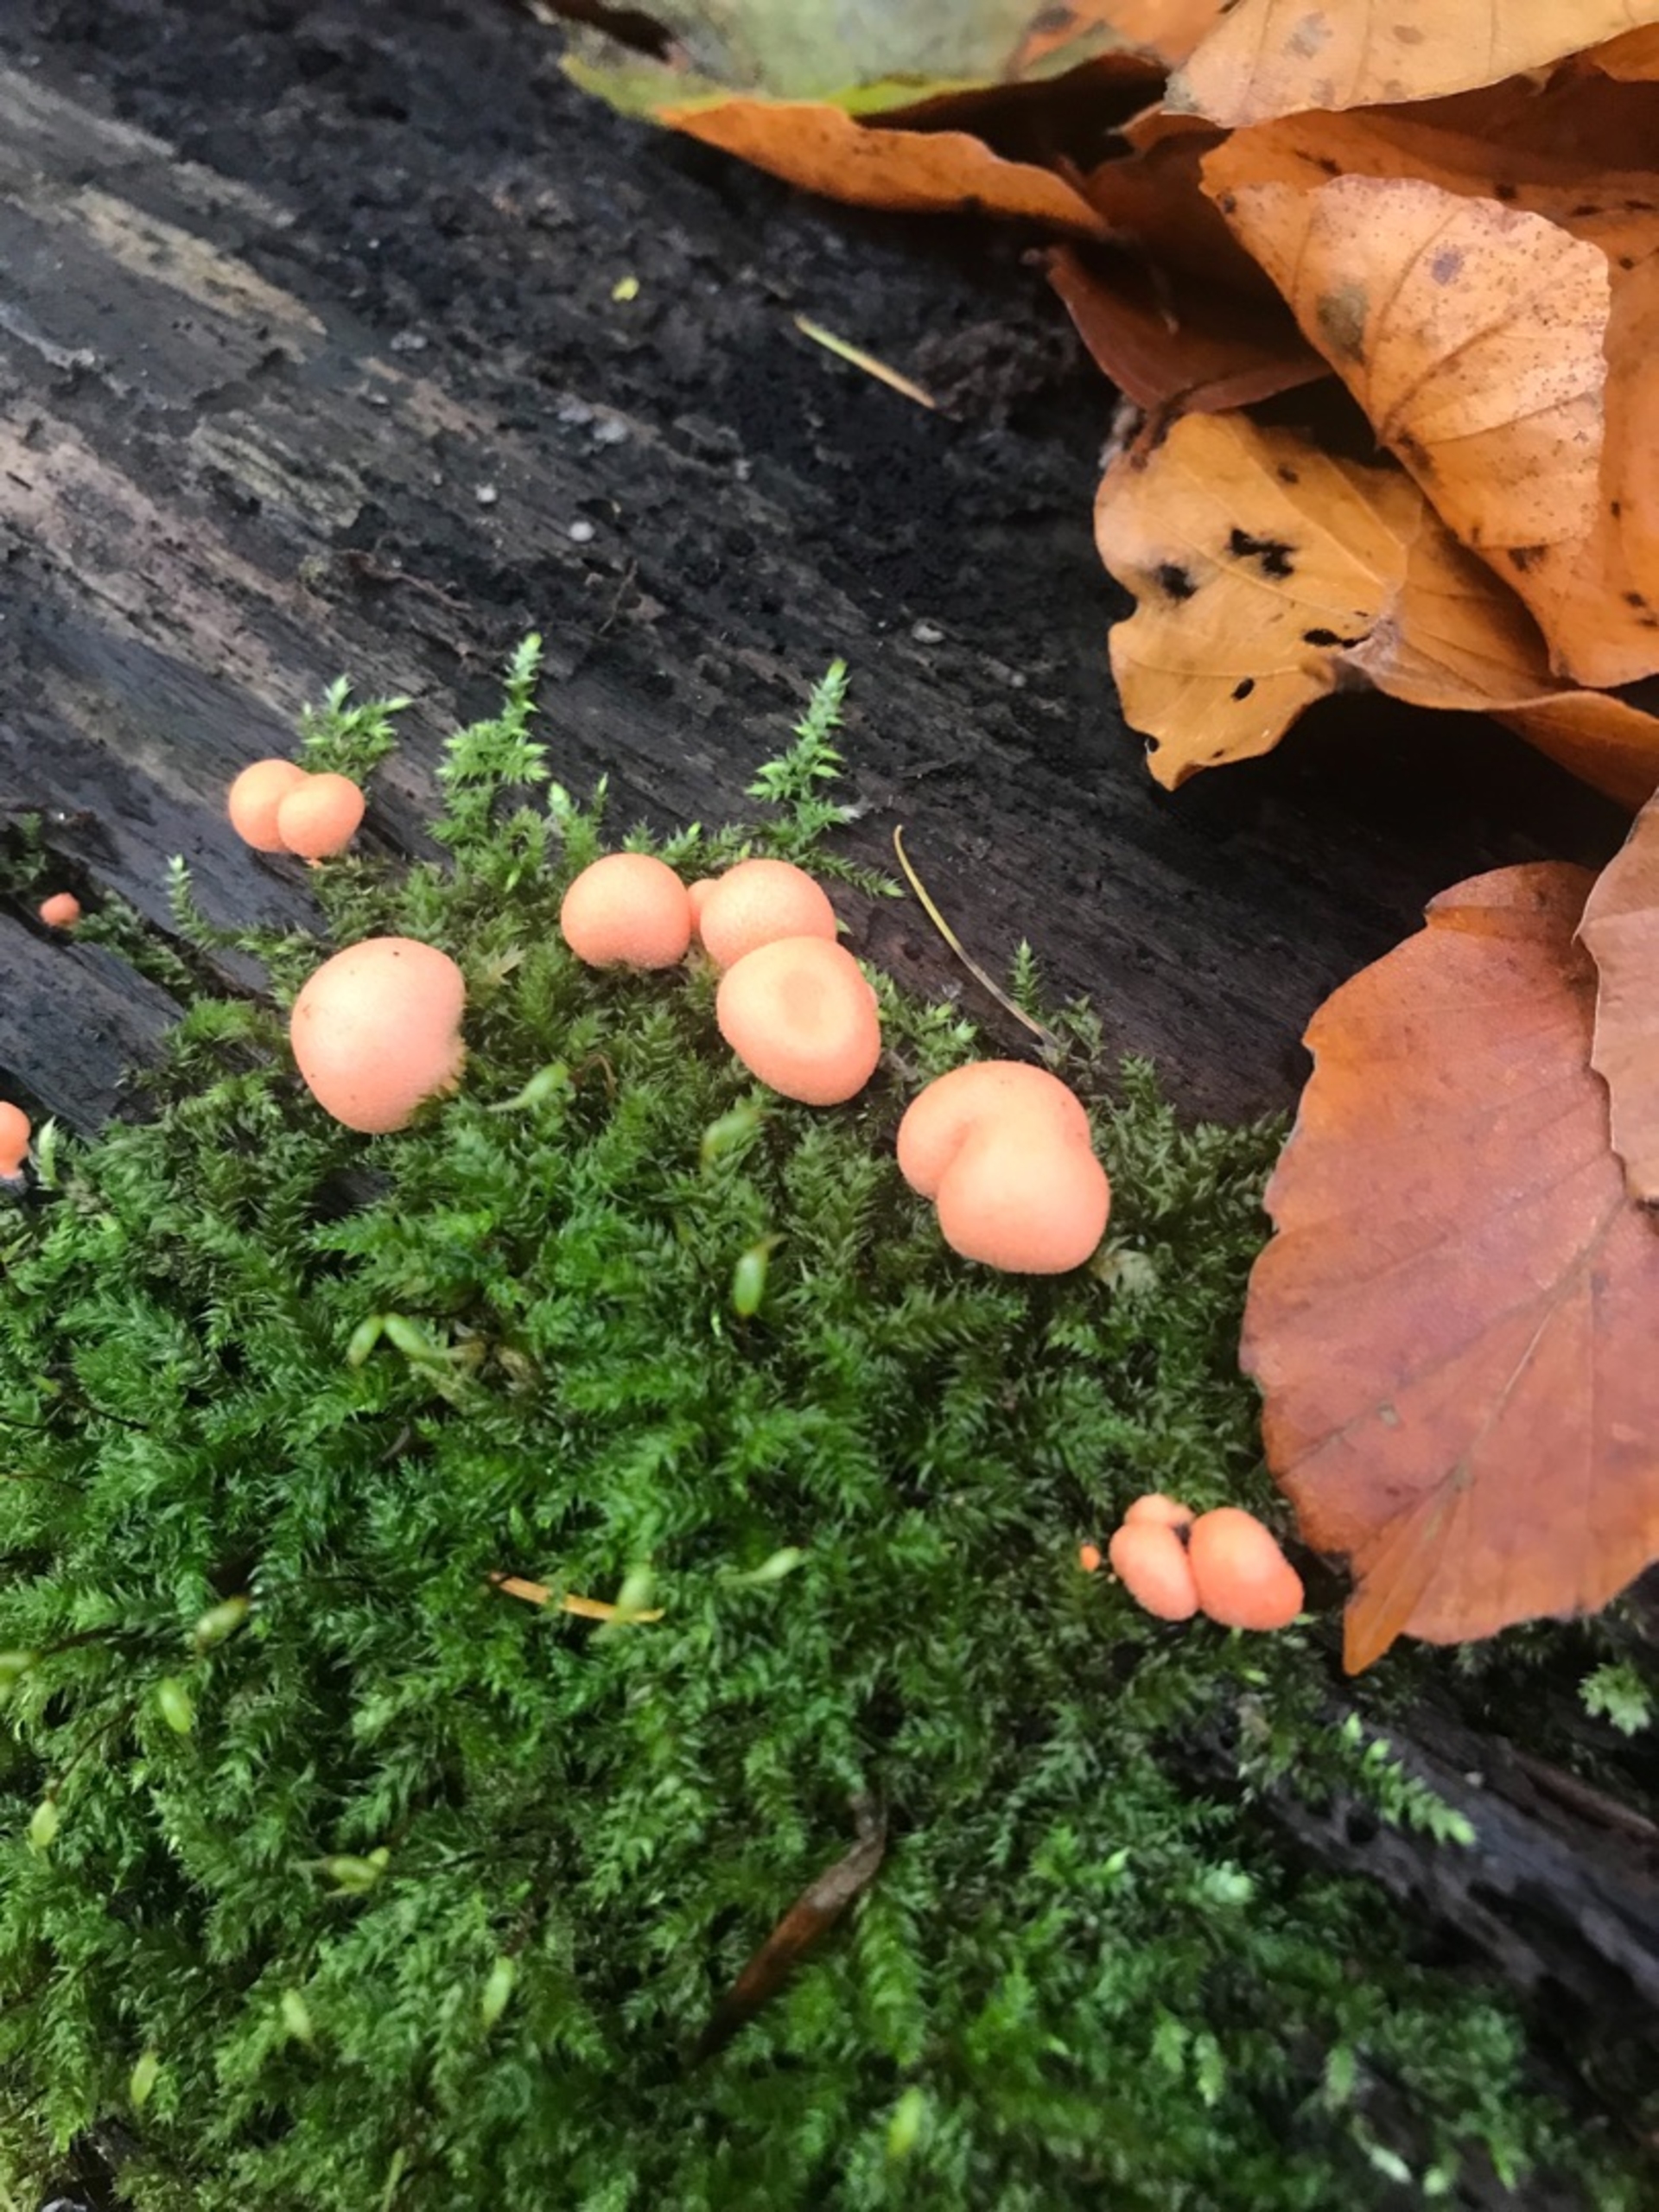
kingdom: Protozoa
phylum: Mycetozoa
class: Myxomycetes
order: Cribrariales
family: Tubiferaceae
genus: Lycogala
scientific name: Lycogala epidendrum
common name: Almindelig rødært
